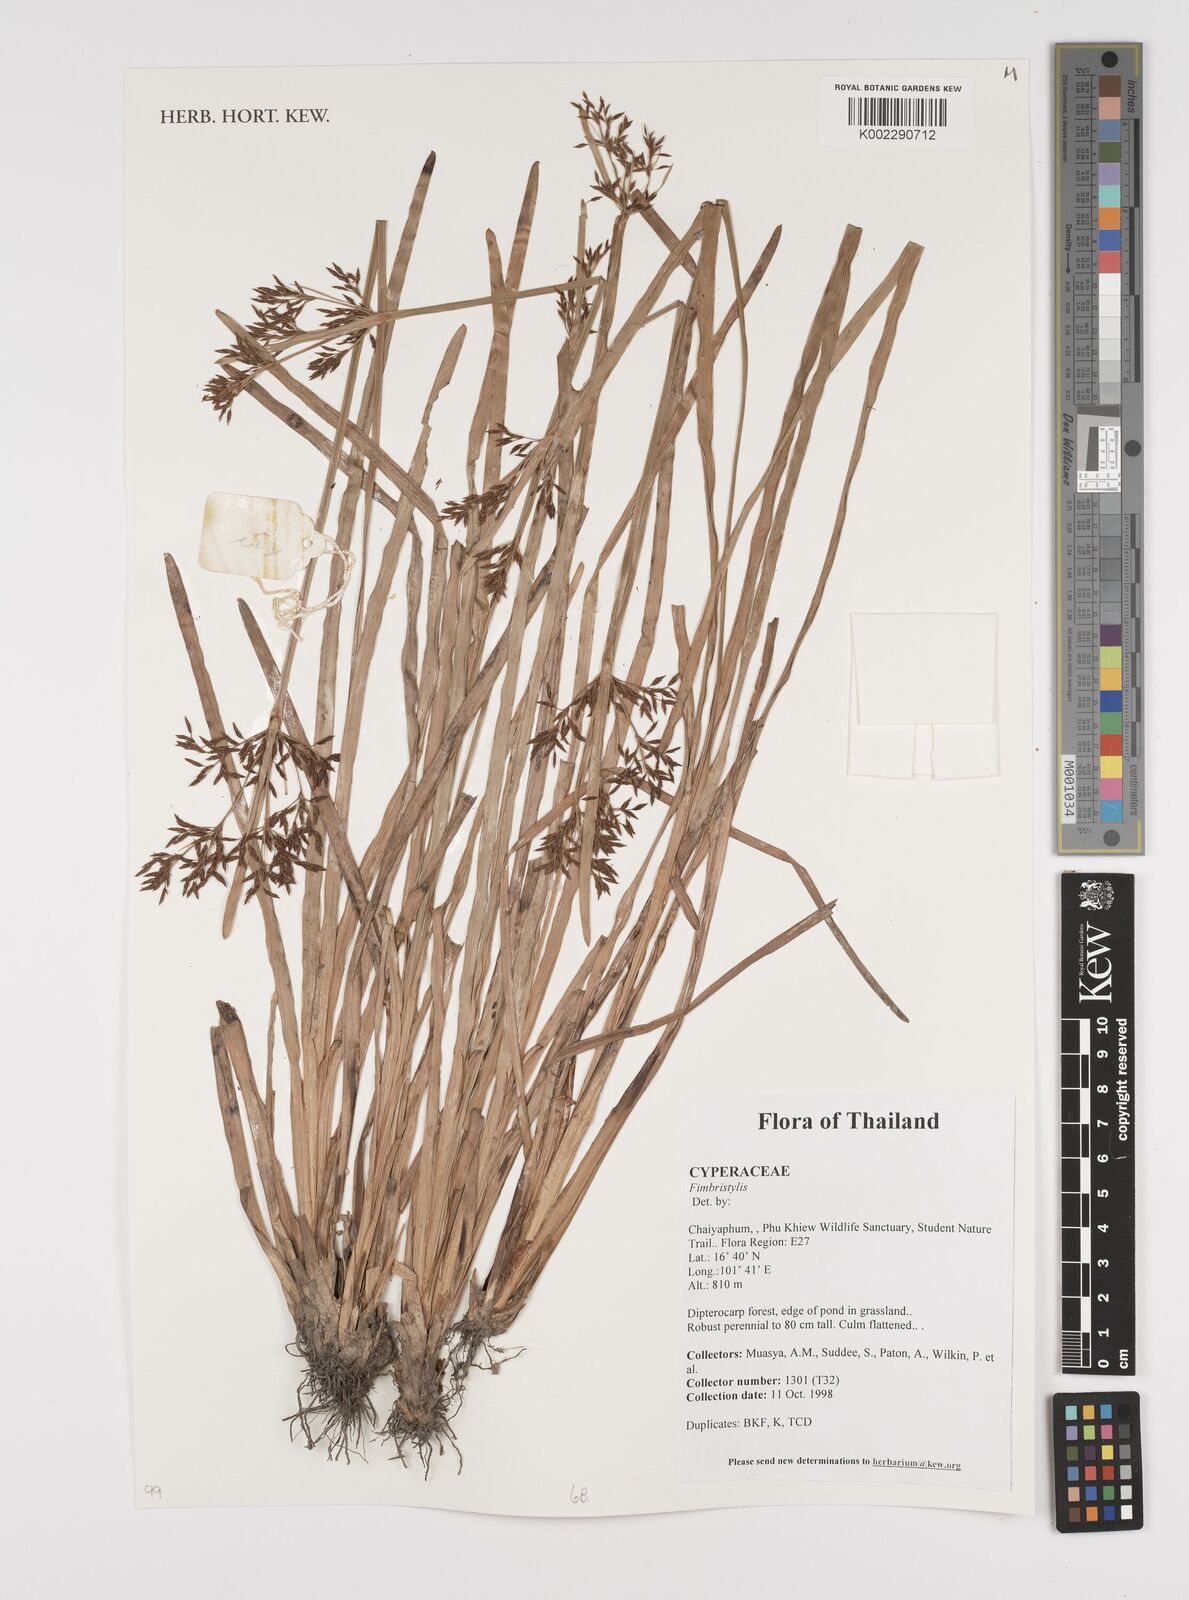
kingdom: Plantae
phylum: Tracheophyta
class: Liliopsida
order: Poales
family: Cyperaceae
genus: Fimbristylis
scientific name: Fimbristylis
